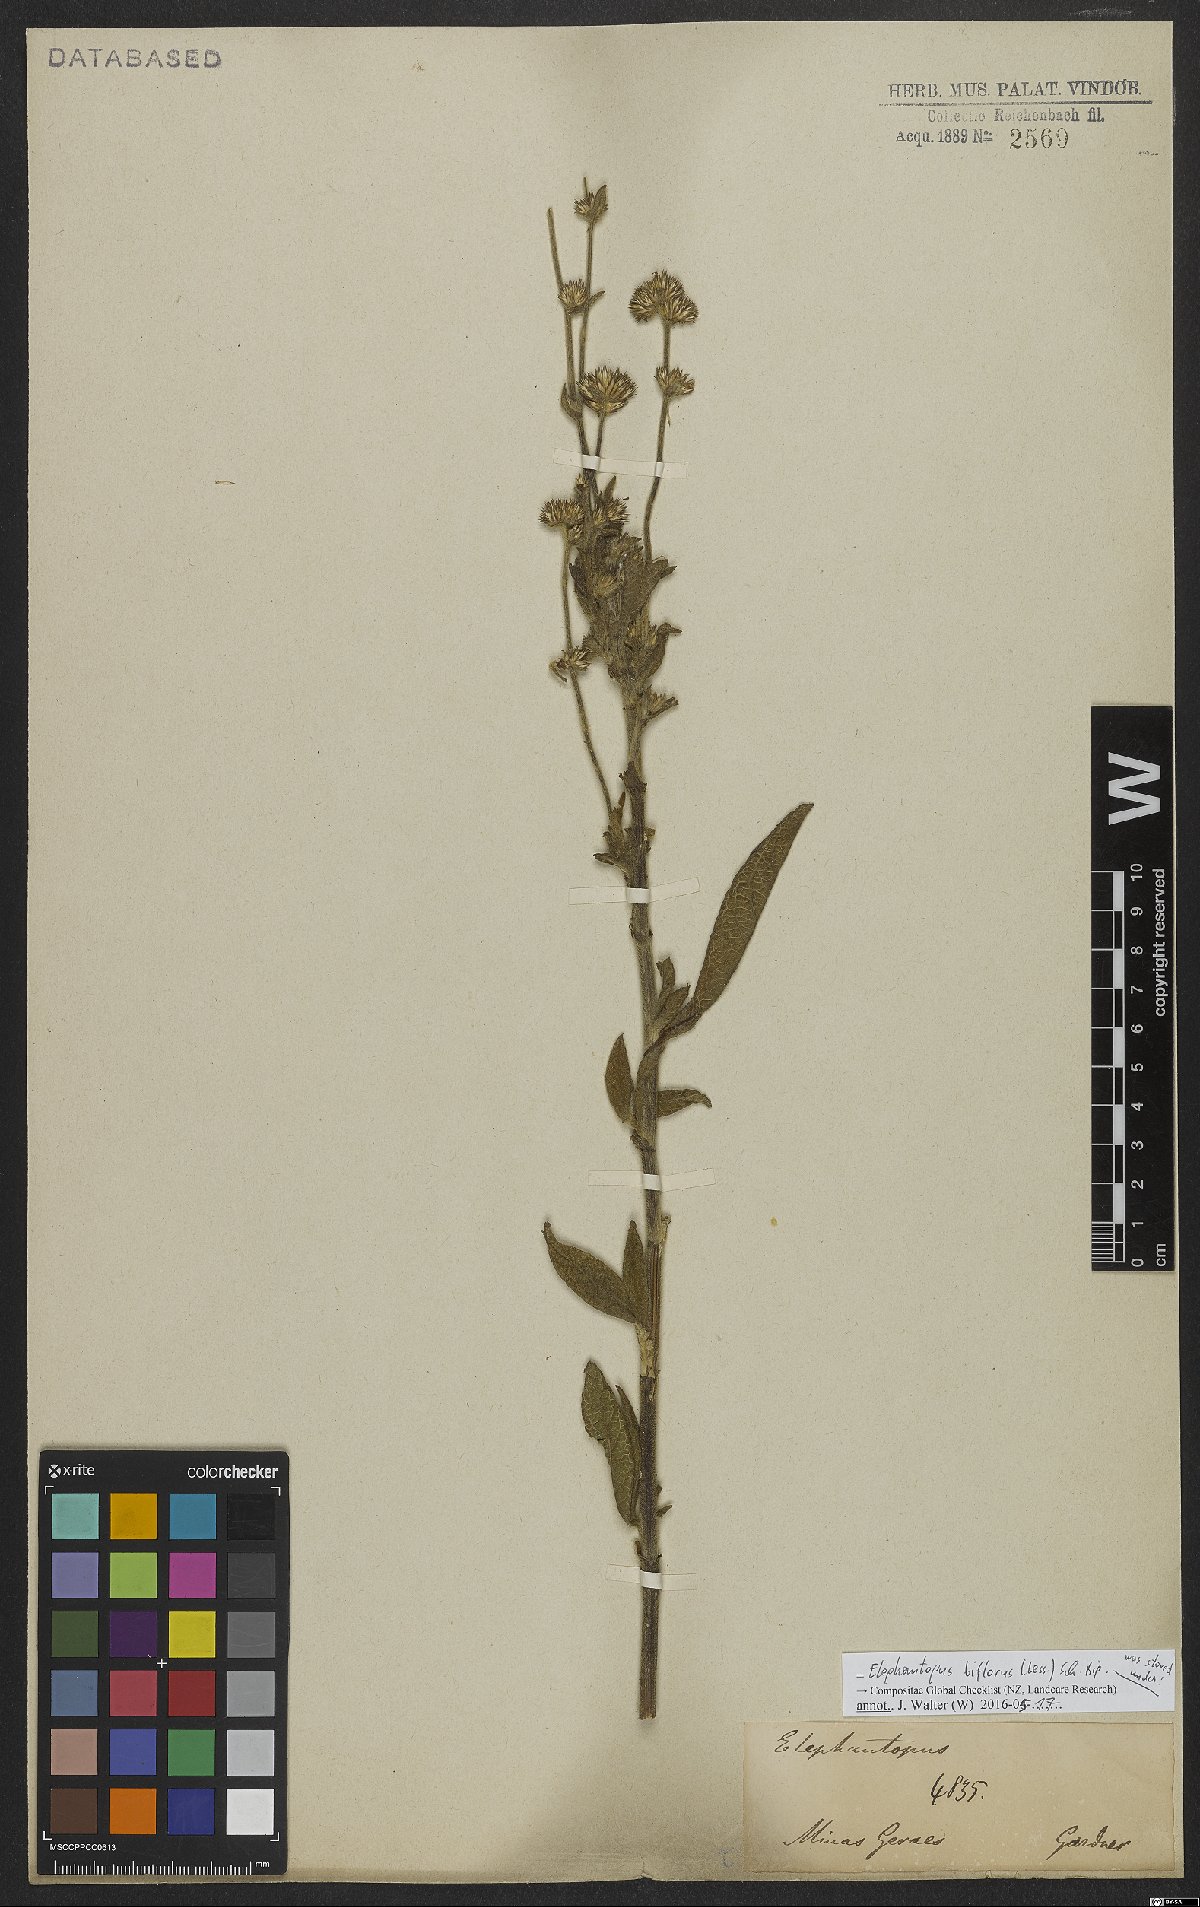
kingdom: Plantae
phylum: Tracheophyta
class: Magnoliopsida
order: Asterales
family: Asteraceae
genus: Elephantopus
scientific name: Elephantopus biflorus
